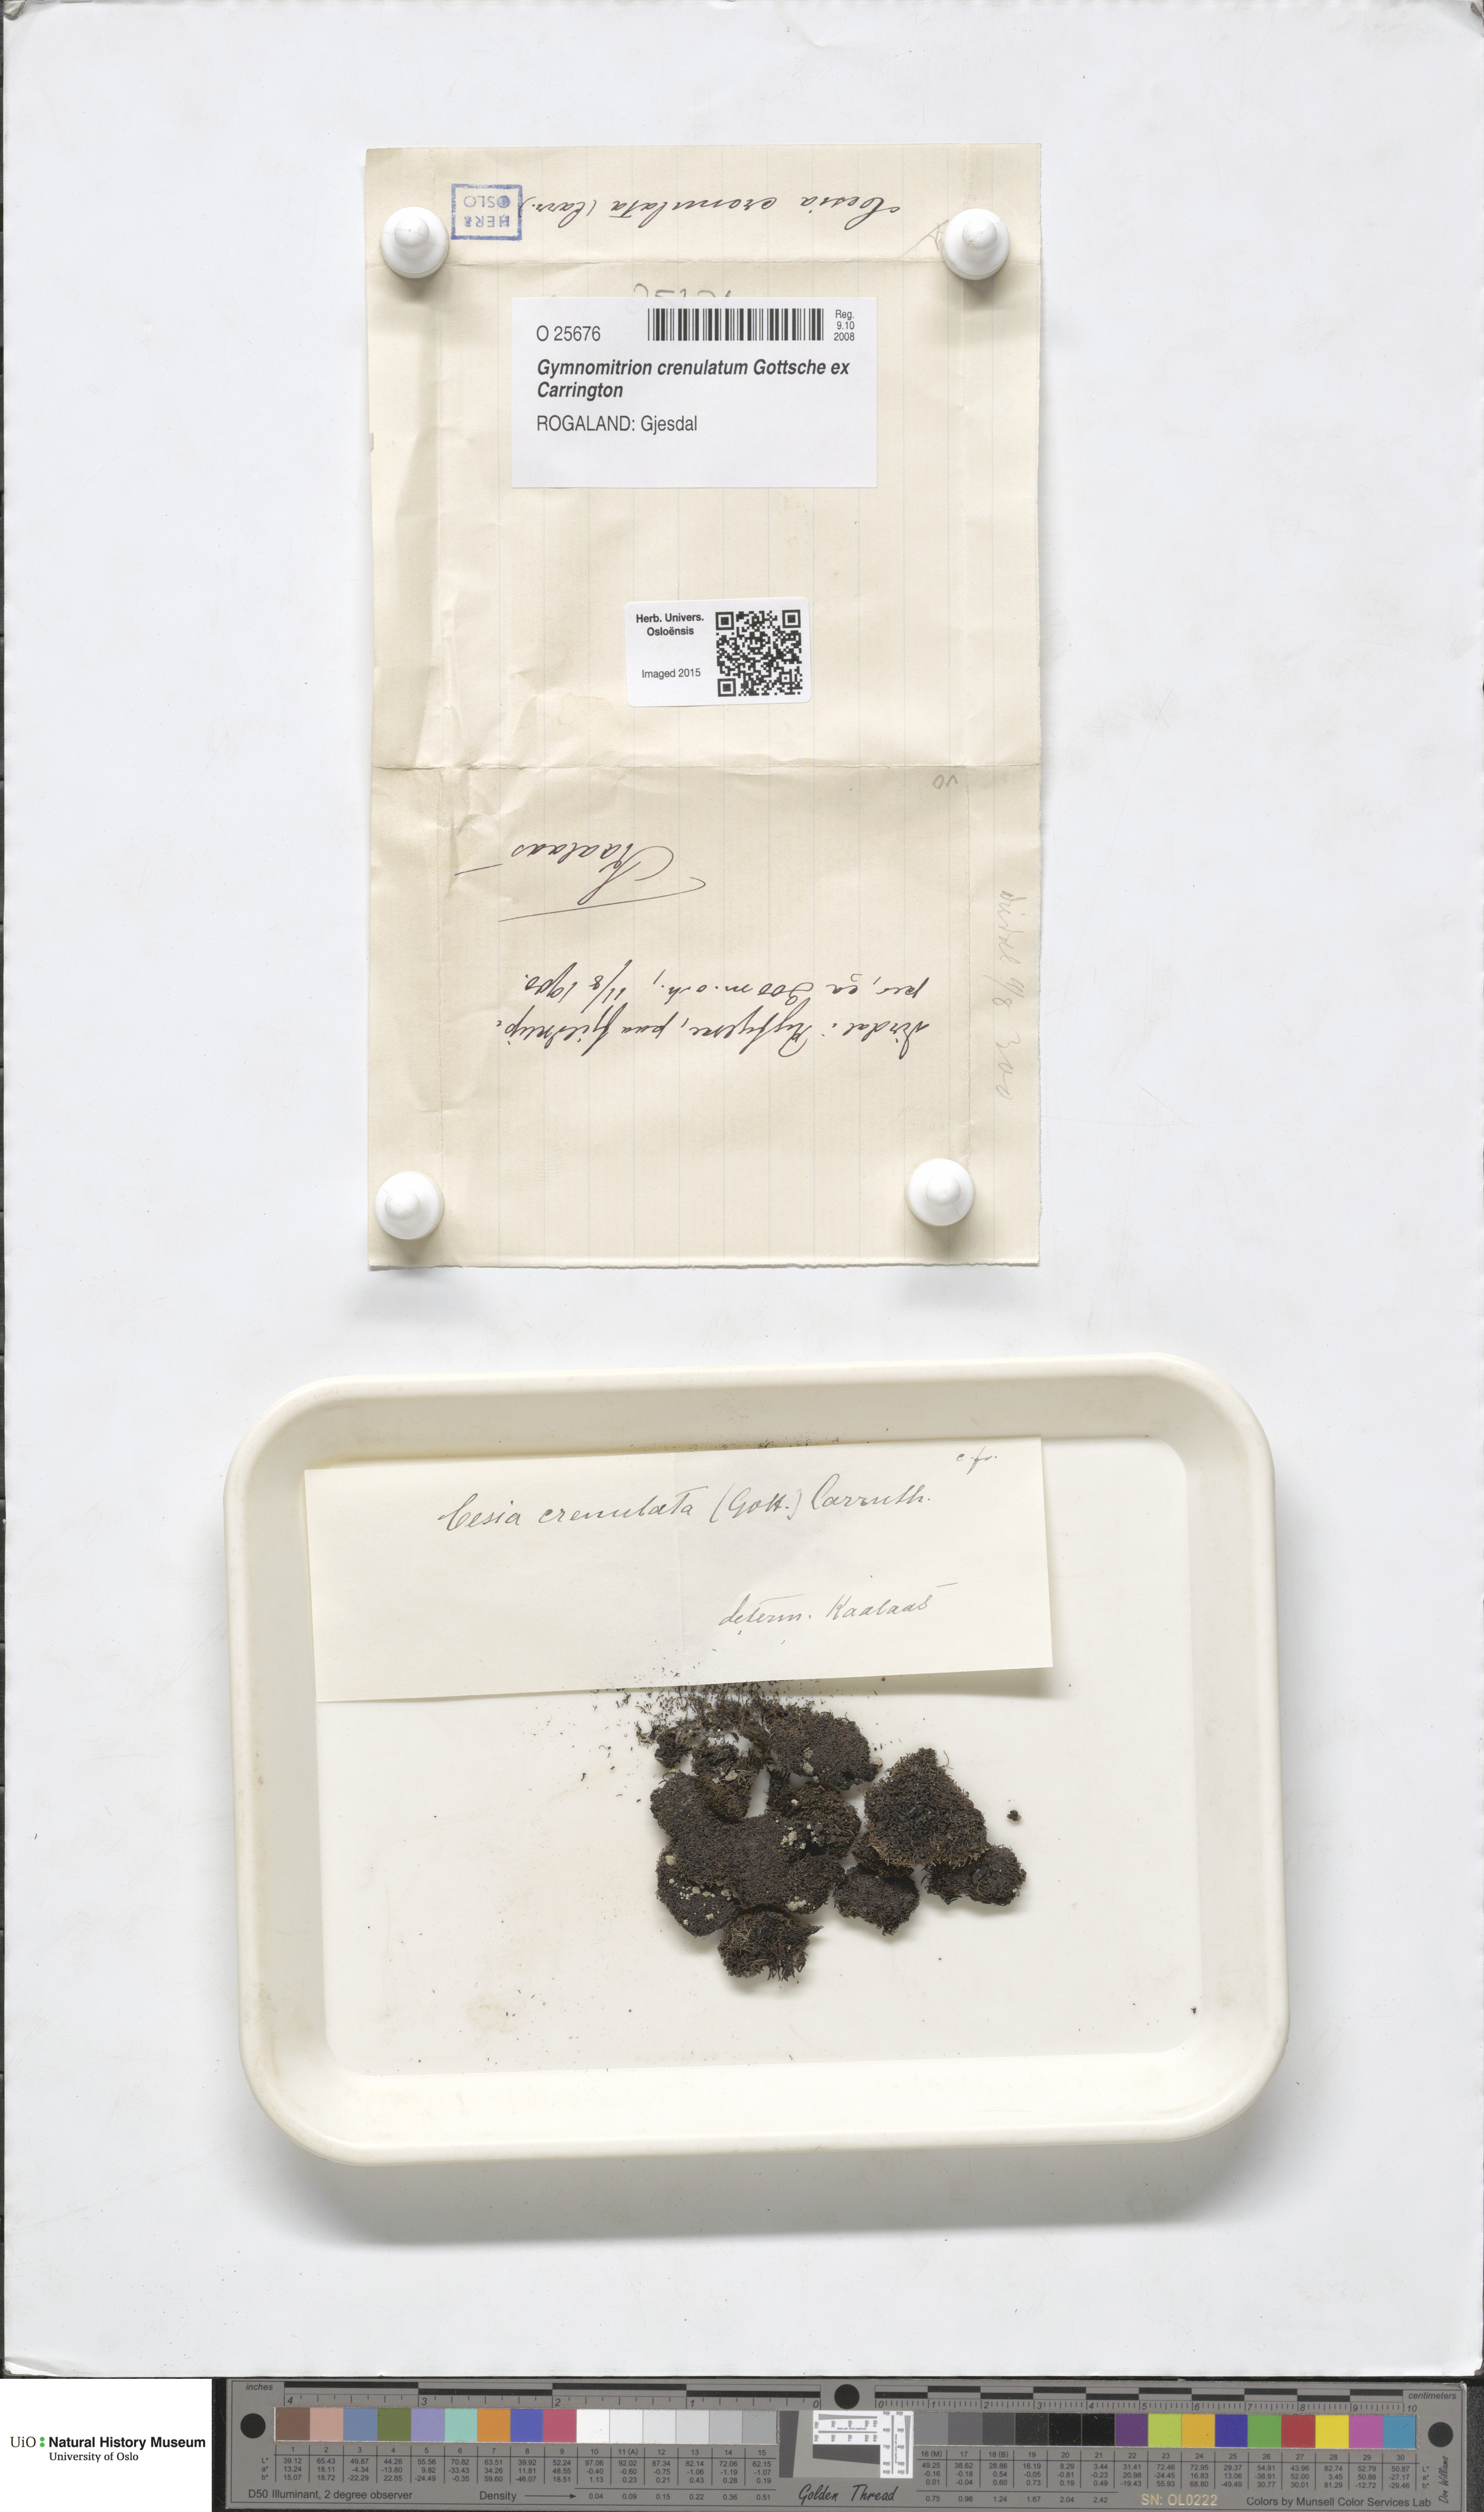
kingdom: Plantae
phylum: Marchantiophyta
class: Jungermanniopsida
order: Jungermanniales
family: Gymnomitriaceae
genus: Gymnomitrion
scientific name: Gymnomitrion crenulatum
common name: Western frostwort
